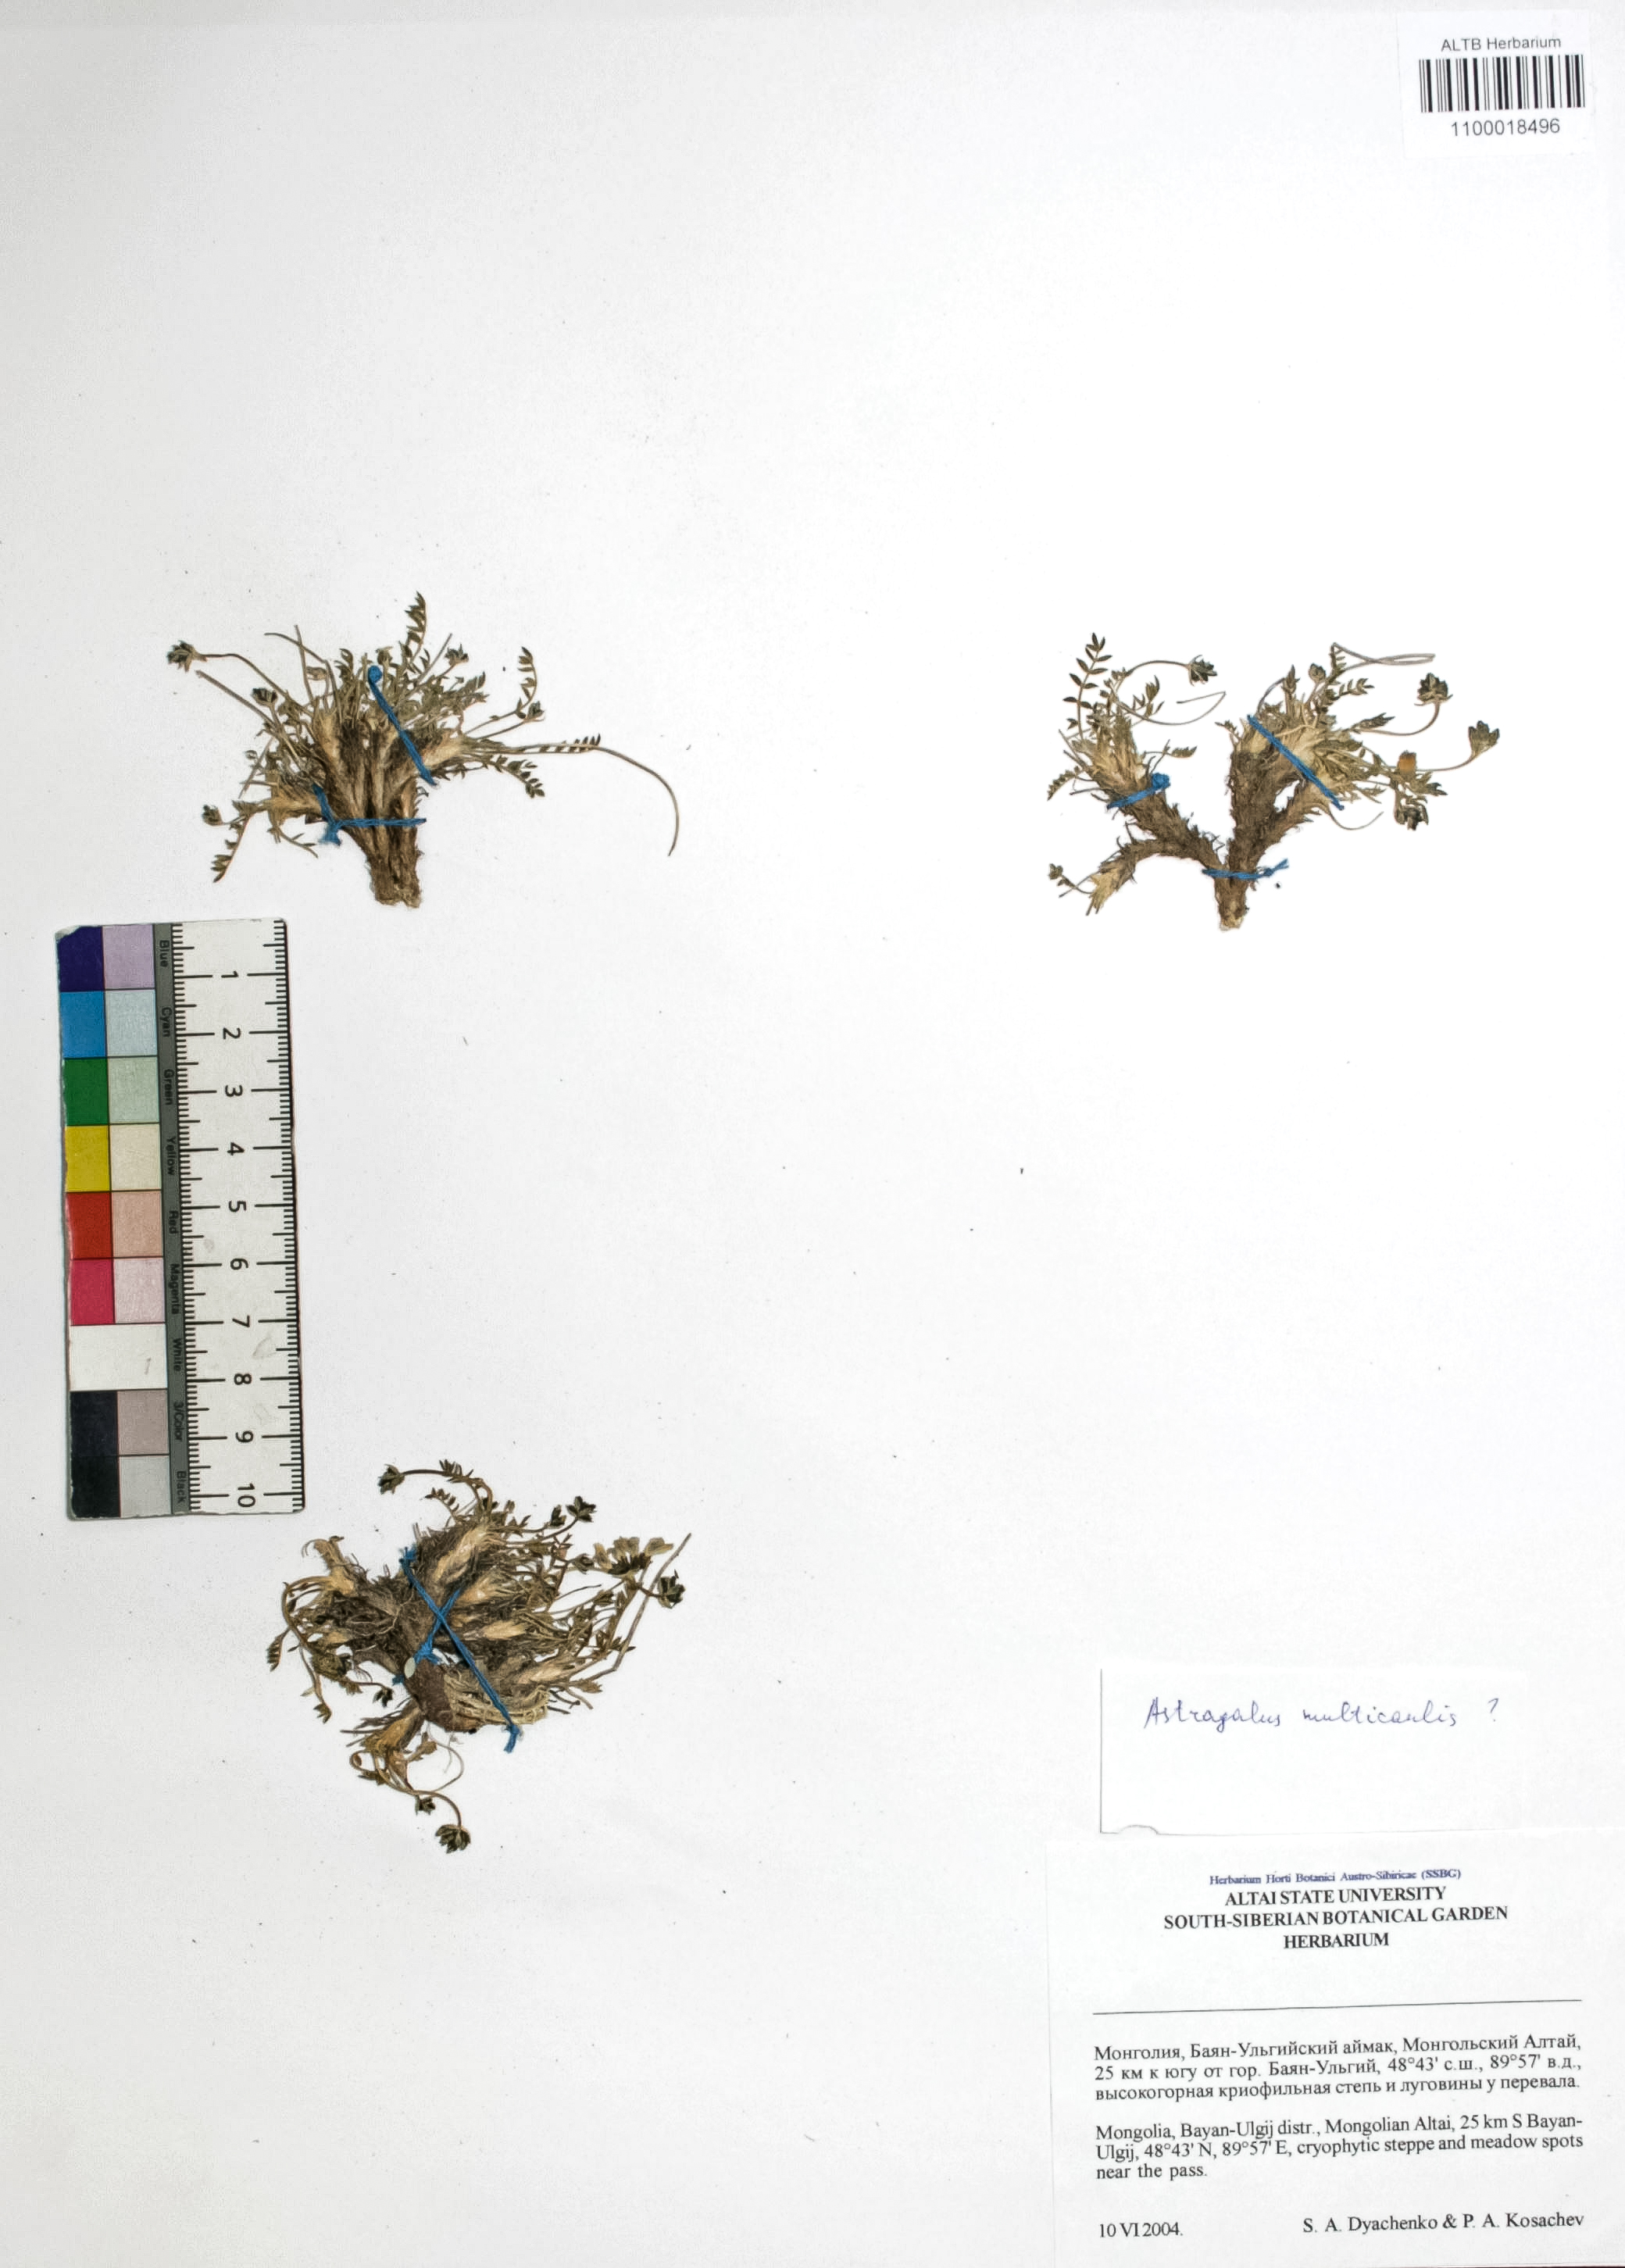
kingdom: Plantae
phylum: Tracheophyta
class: Magnoliopsida
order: Fabales
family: Fabaceae
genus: Astragalus
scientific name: Astragalus leptostachys
